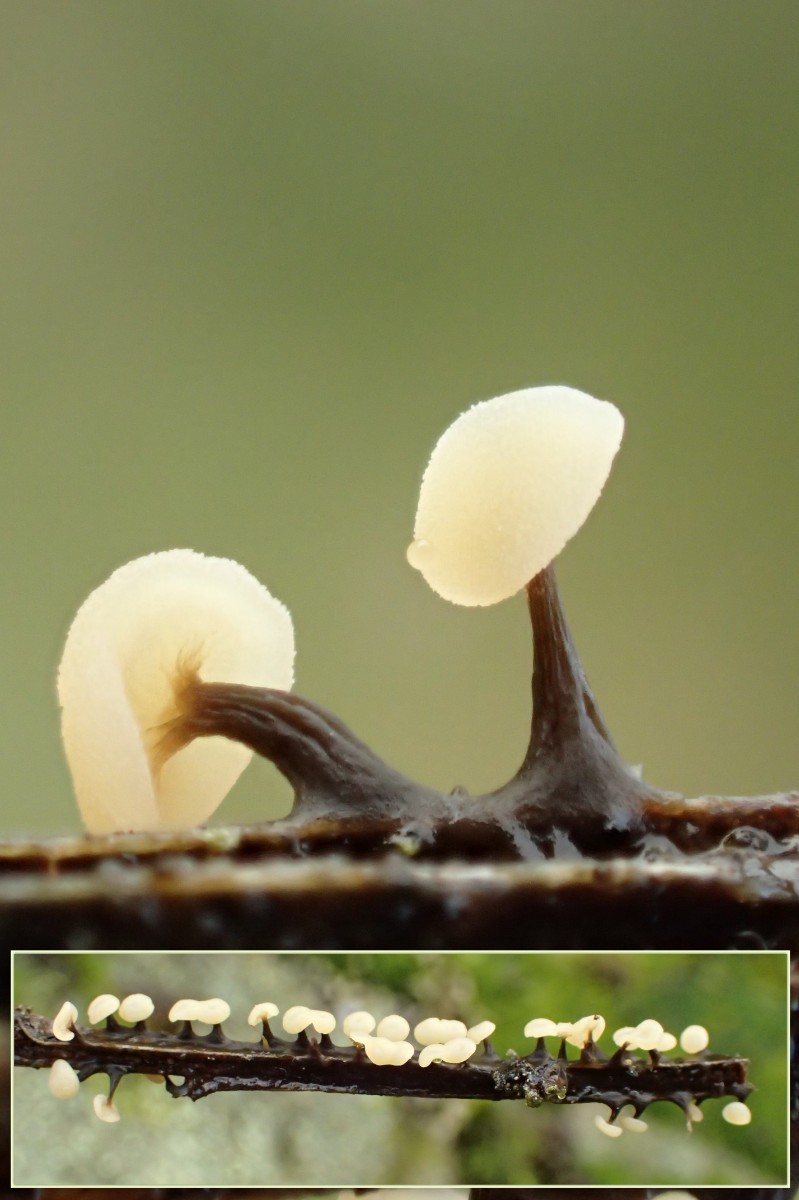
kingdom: Protozoa
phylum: Mycetozoa
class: Myxomycetes
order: Physarales
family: Didymiaceae
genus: Didymium
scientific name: Didymium clavus
